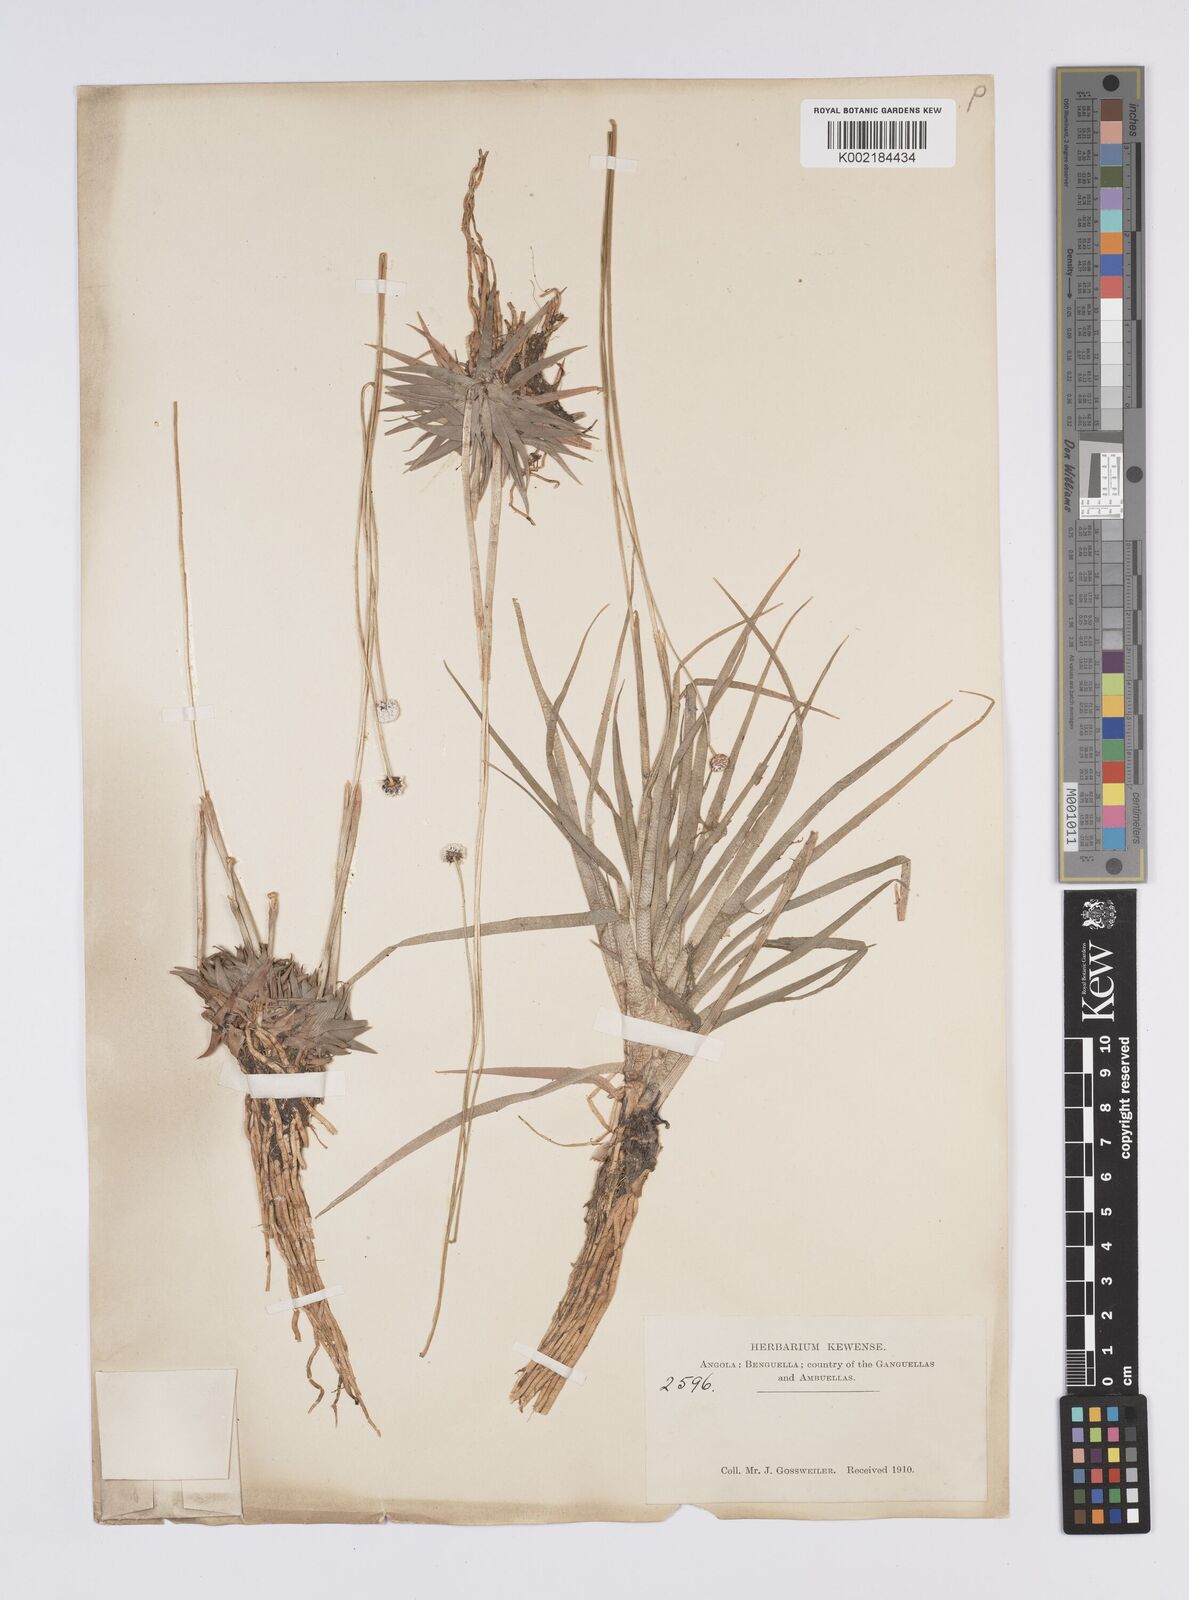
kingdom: Plantae
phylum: Tracheophyta
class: Liliopsida
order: Poales
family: Eriocaulaceae
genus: Eriocaulon
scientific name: Eriocaulon
